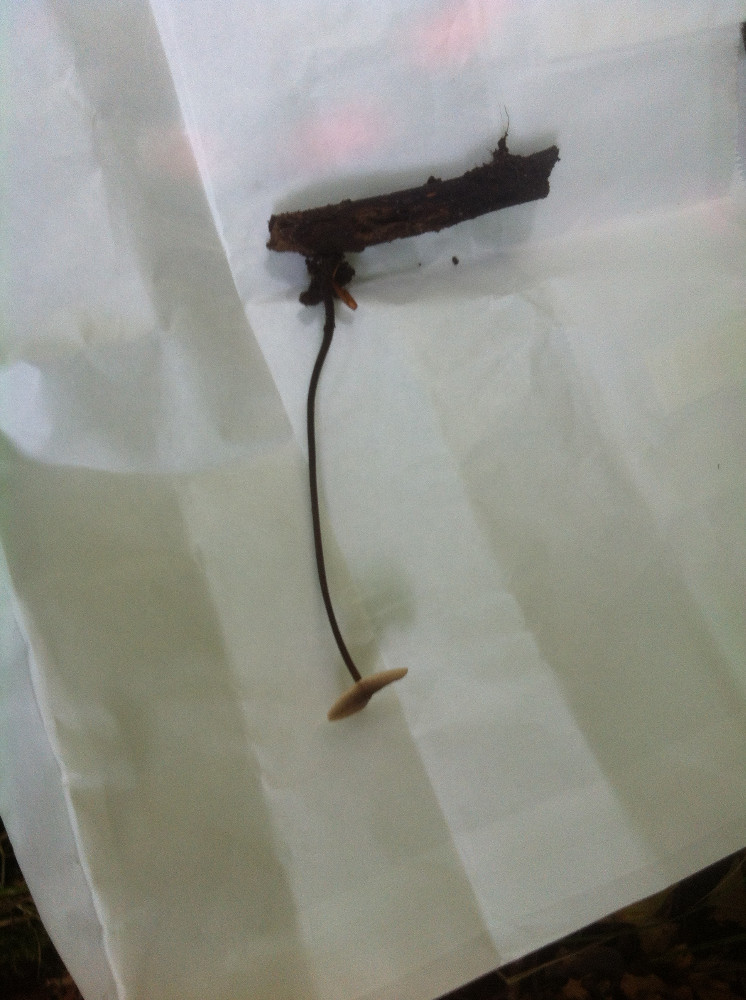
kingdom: Fungi
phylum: Basidiomycota
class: Agaricomycetes
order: Agaricales
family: Omphalotaceae
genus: Mycetinis
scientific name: Mycetinis alliaceus
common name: stor løghat
